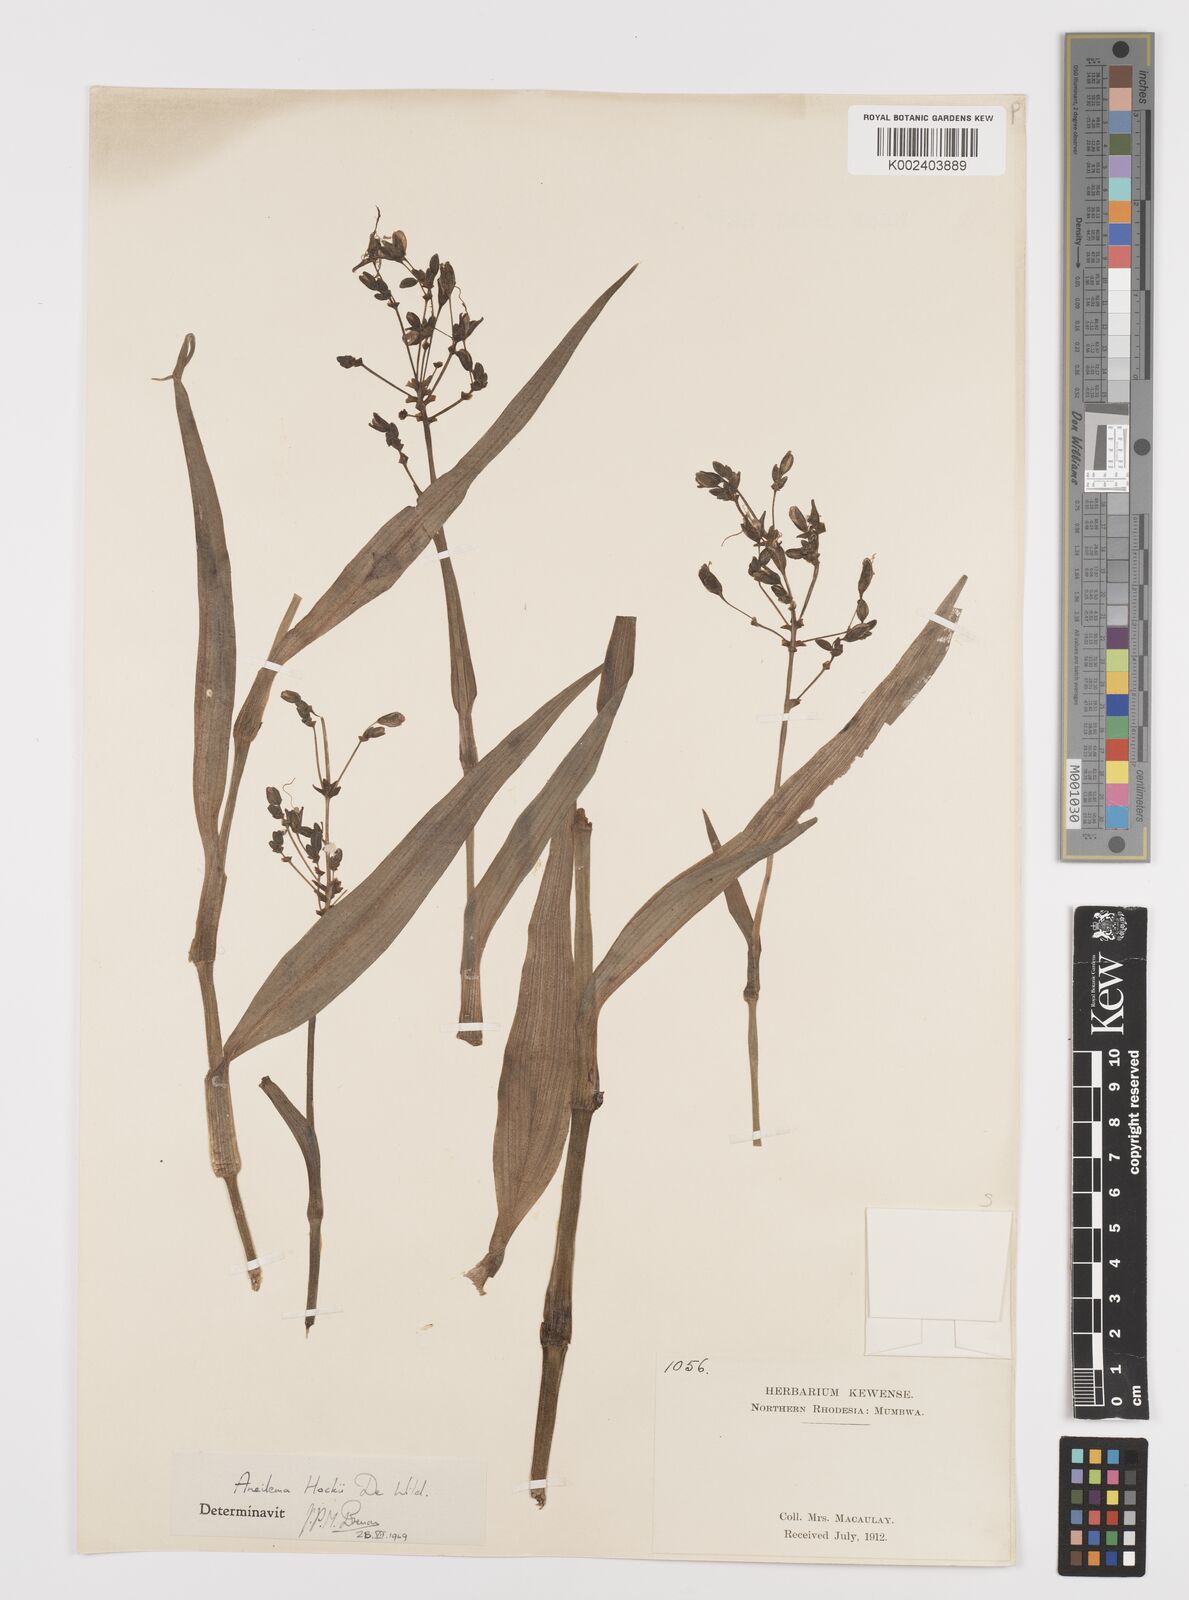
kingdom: Plantae
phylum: Tracheophyta
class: Liliopsida
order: Commelinales
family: Commelinaceae
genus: Aneilema
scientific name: Aneilema hockii
